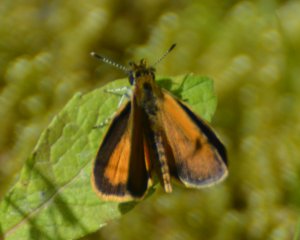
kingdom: Animalia
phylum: Arthropoda
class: Insecta
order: Lepidoptera
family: Hesperiidae
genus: Ancyloxypha
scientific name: Ancyloxypha numitor
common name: Least Skipper
